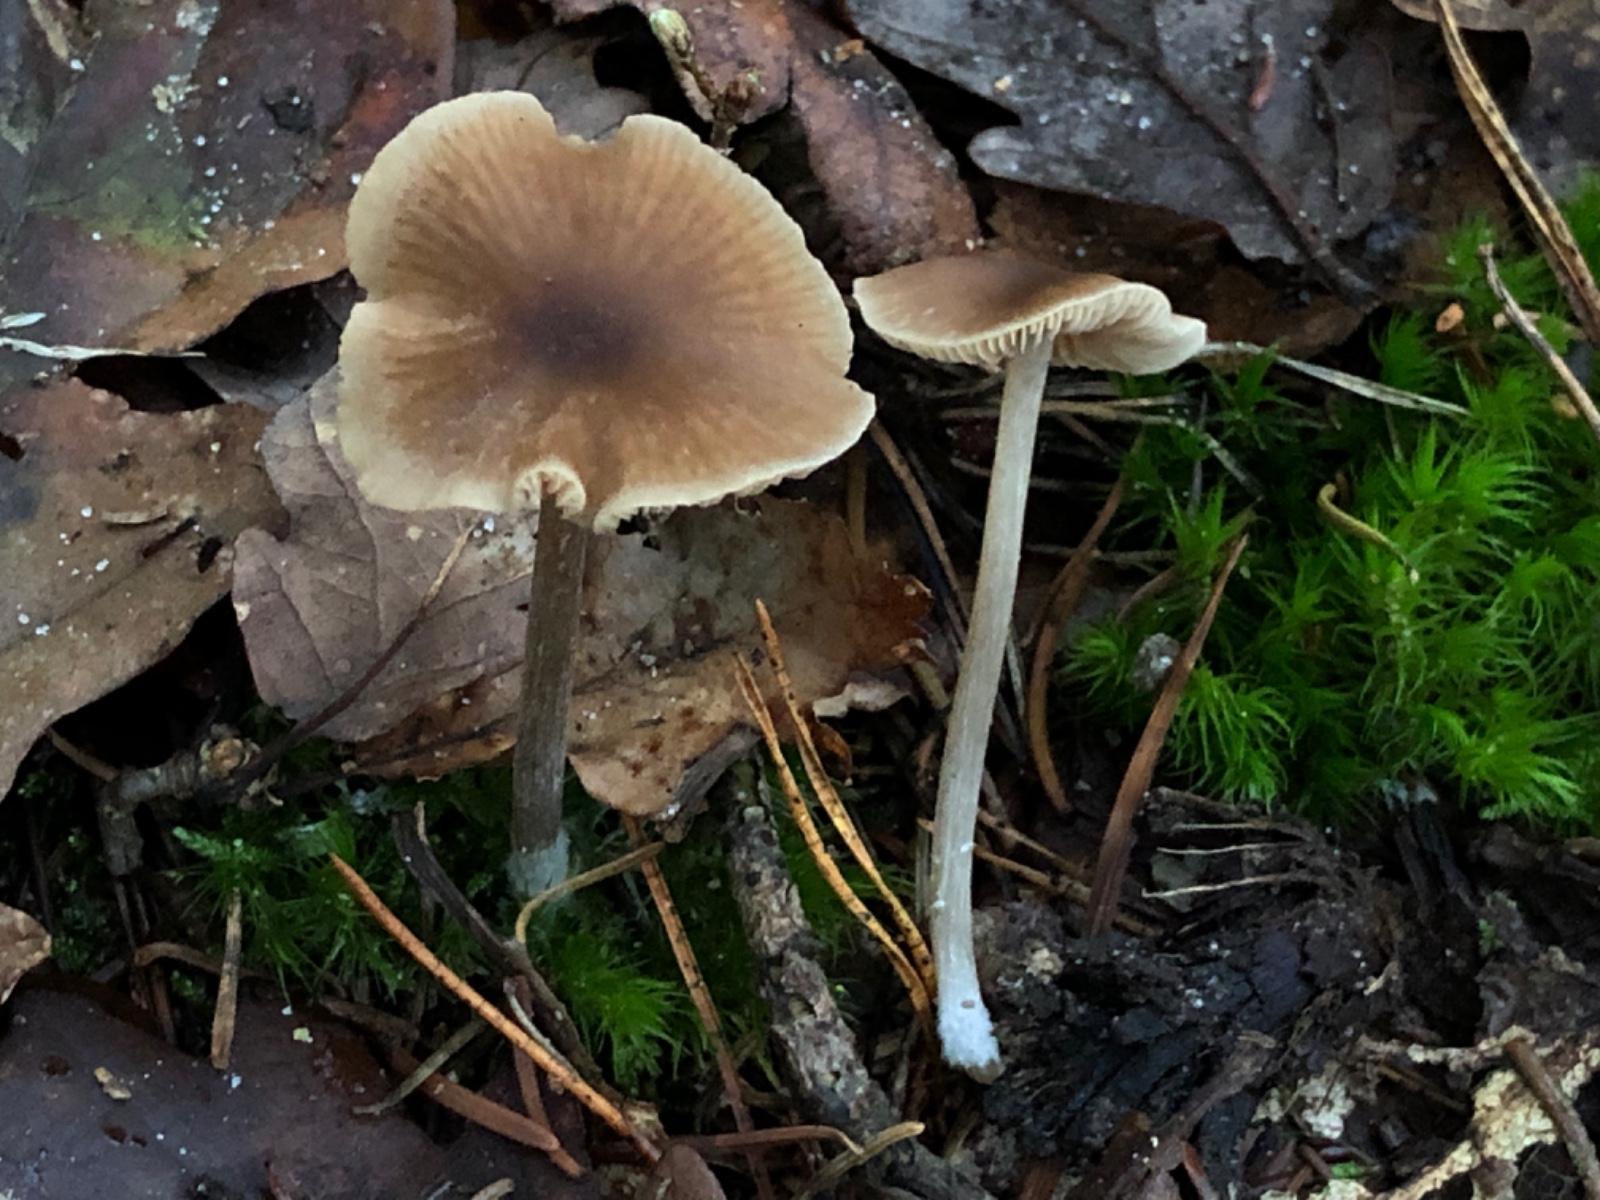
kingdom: Fungi
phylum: Basidiomycota
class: Agaricomycetes
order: Agaricales
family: Entolomataceae
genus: Entoloma
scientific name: Entoloma
